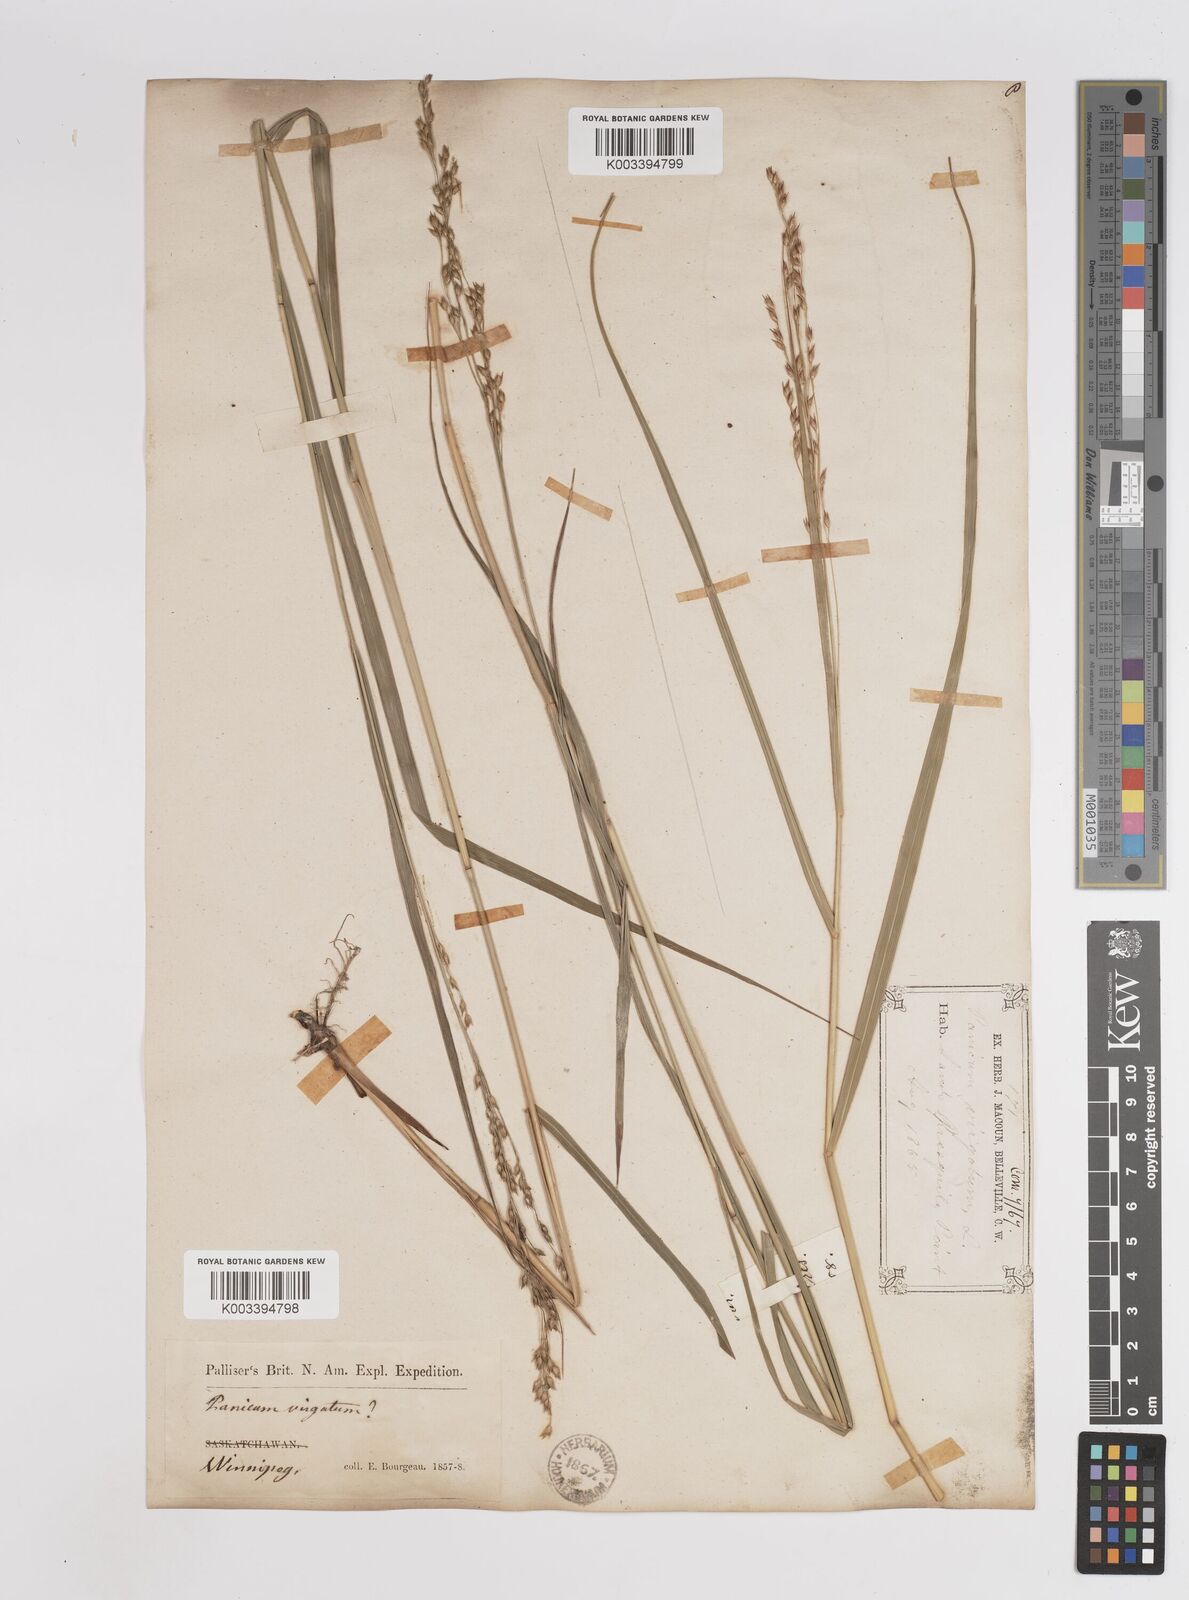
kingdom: Plantae
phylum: Tracheophyta
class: Liliopsida
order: Poales
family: Poaceae
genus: Panicum
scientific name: Panicum virgatum
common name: Switchgrass
